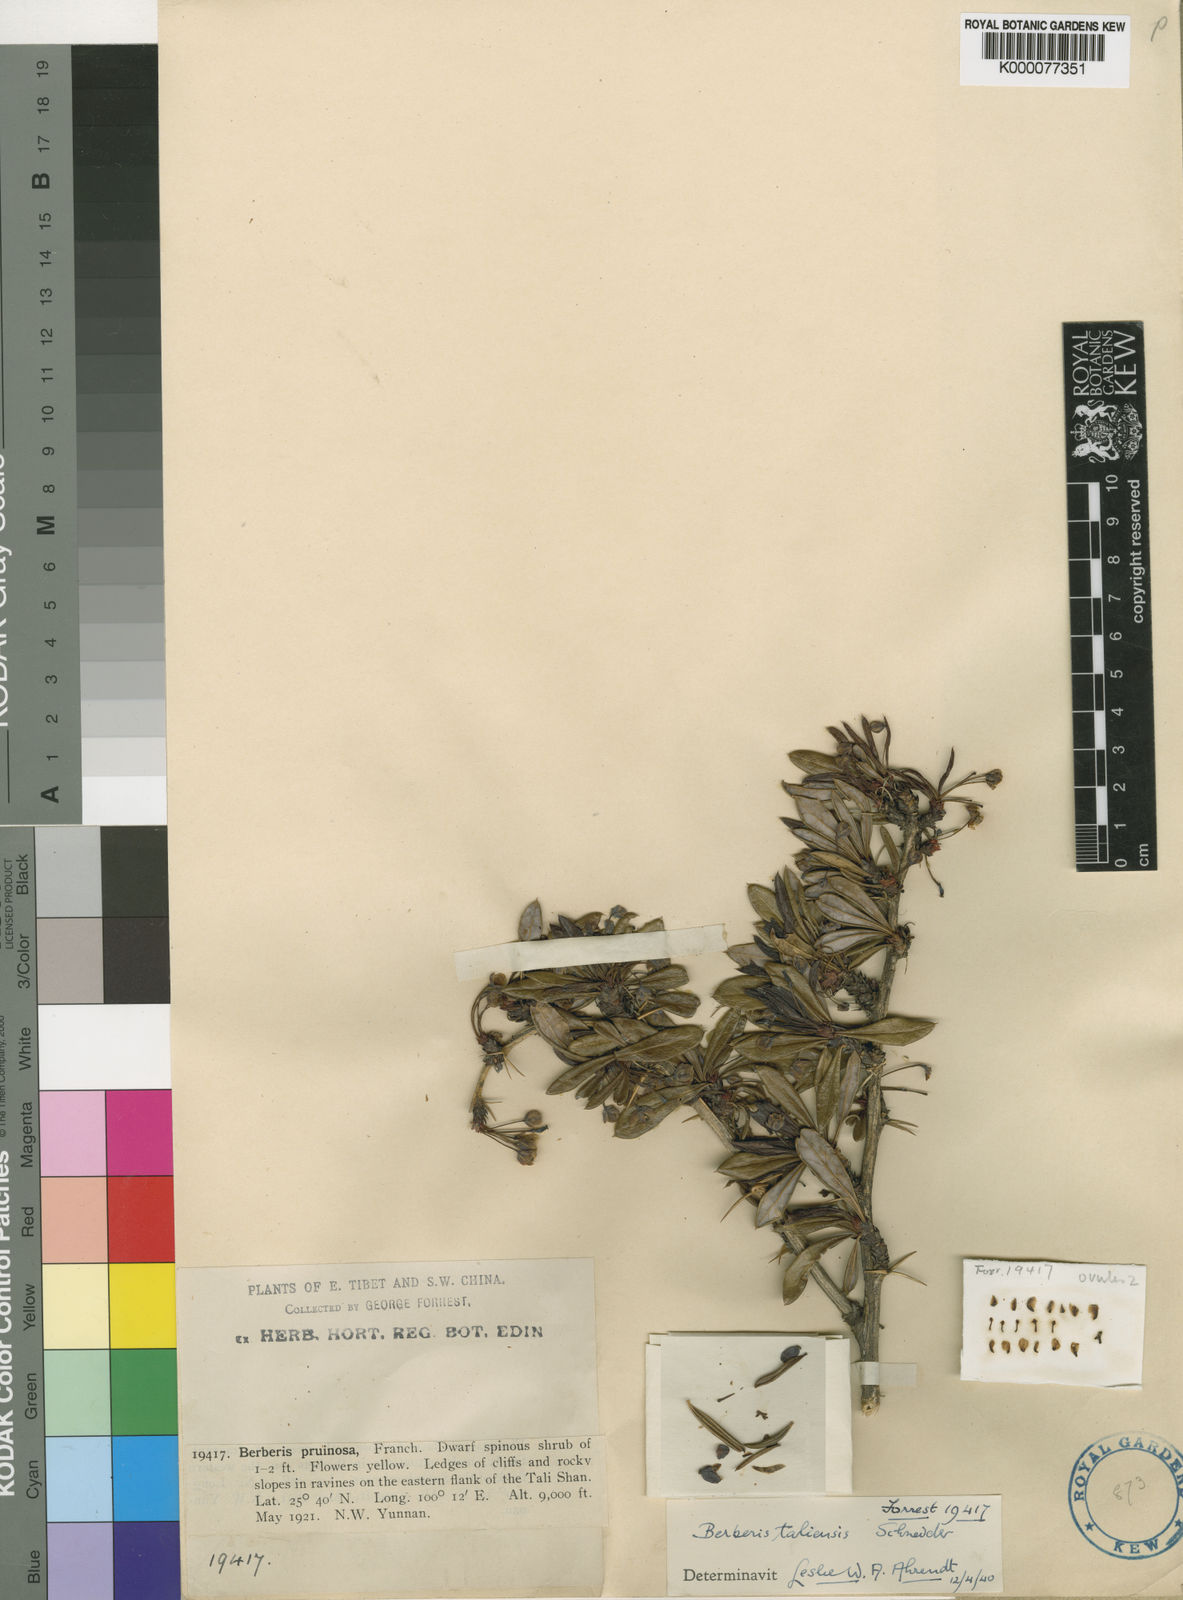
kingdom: Plantae
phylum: Tracheophyta
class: Magnoliopsida
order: Ranunculales
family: Berberidaceae
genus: Berberis
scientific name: Berberis taliensis
